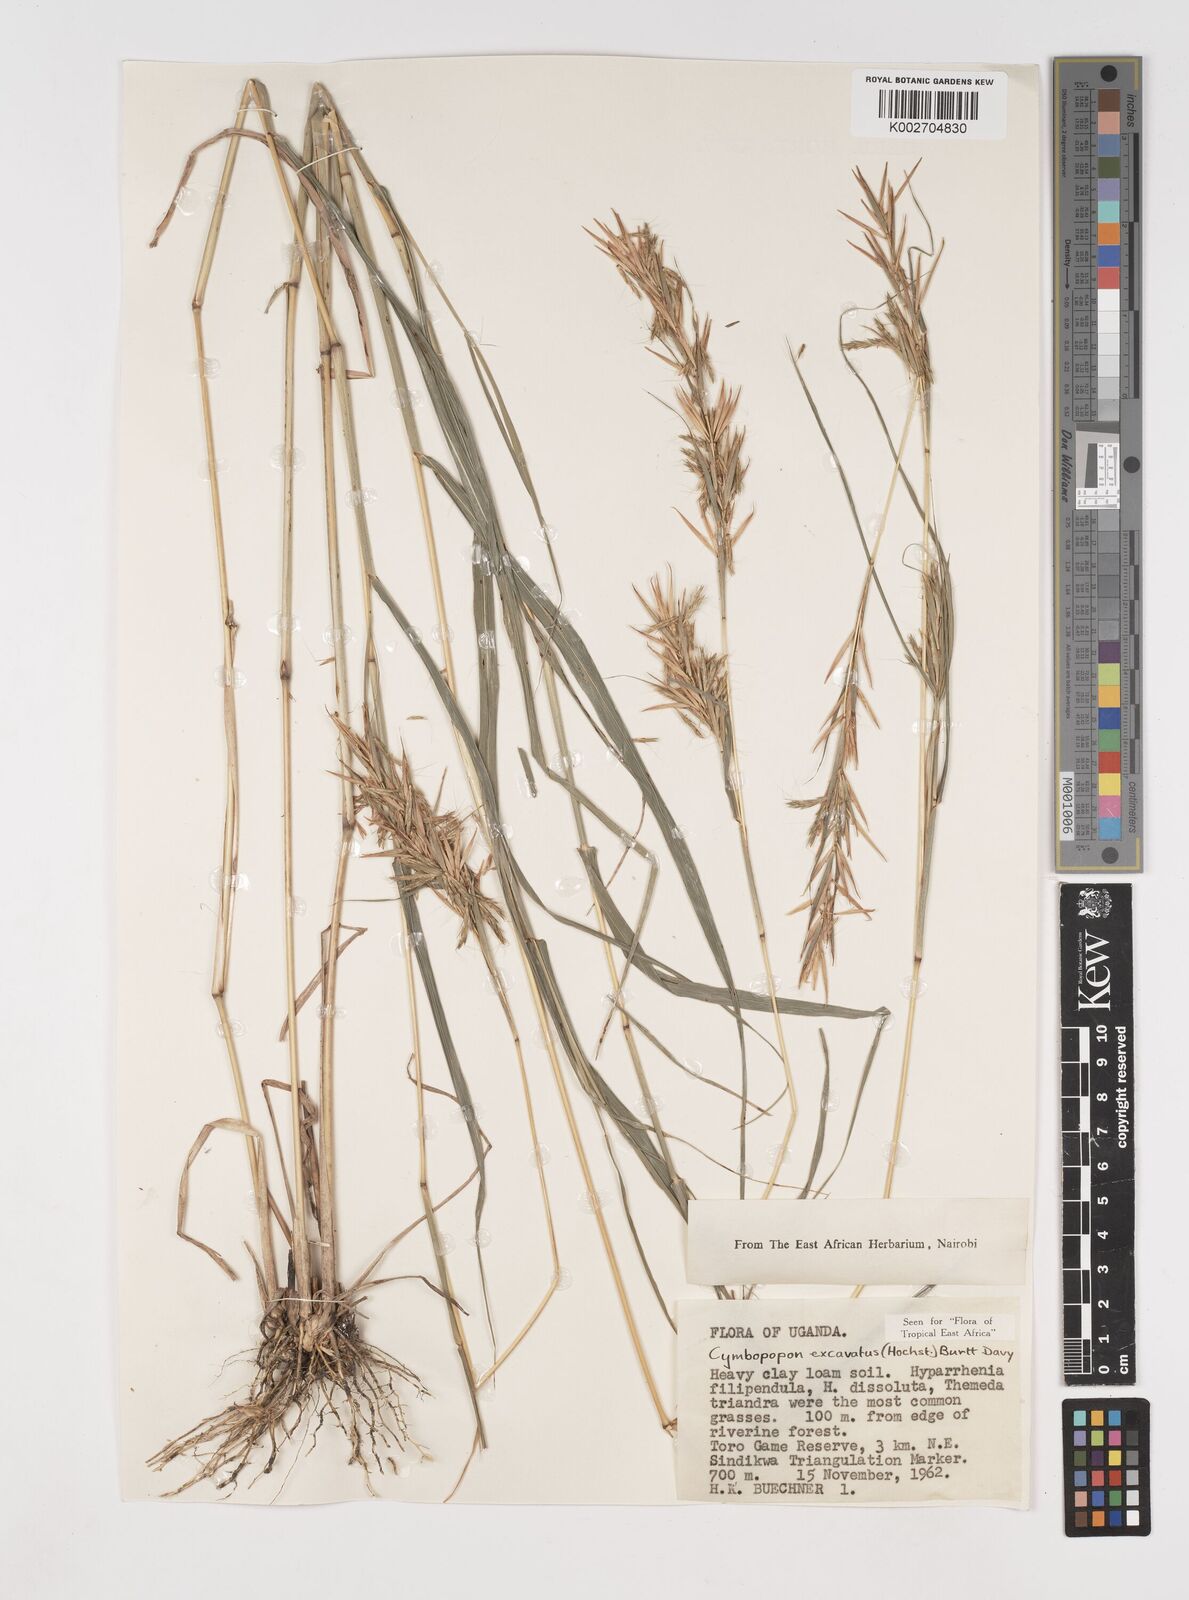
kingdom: Plantae
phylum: Tracheophyta
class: Liliopsida
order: Poales
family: Poaceae
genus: Cymbopogon
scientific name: Cymbopogon caesius
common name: Kachi grass
